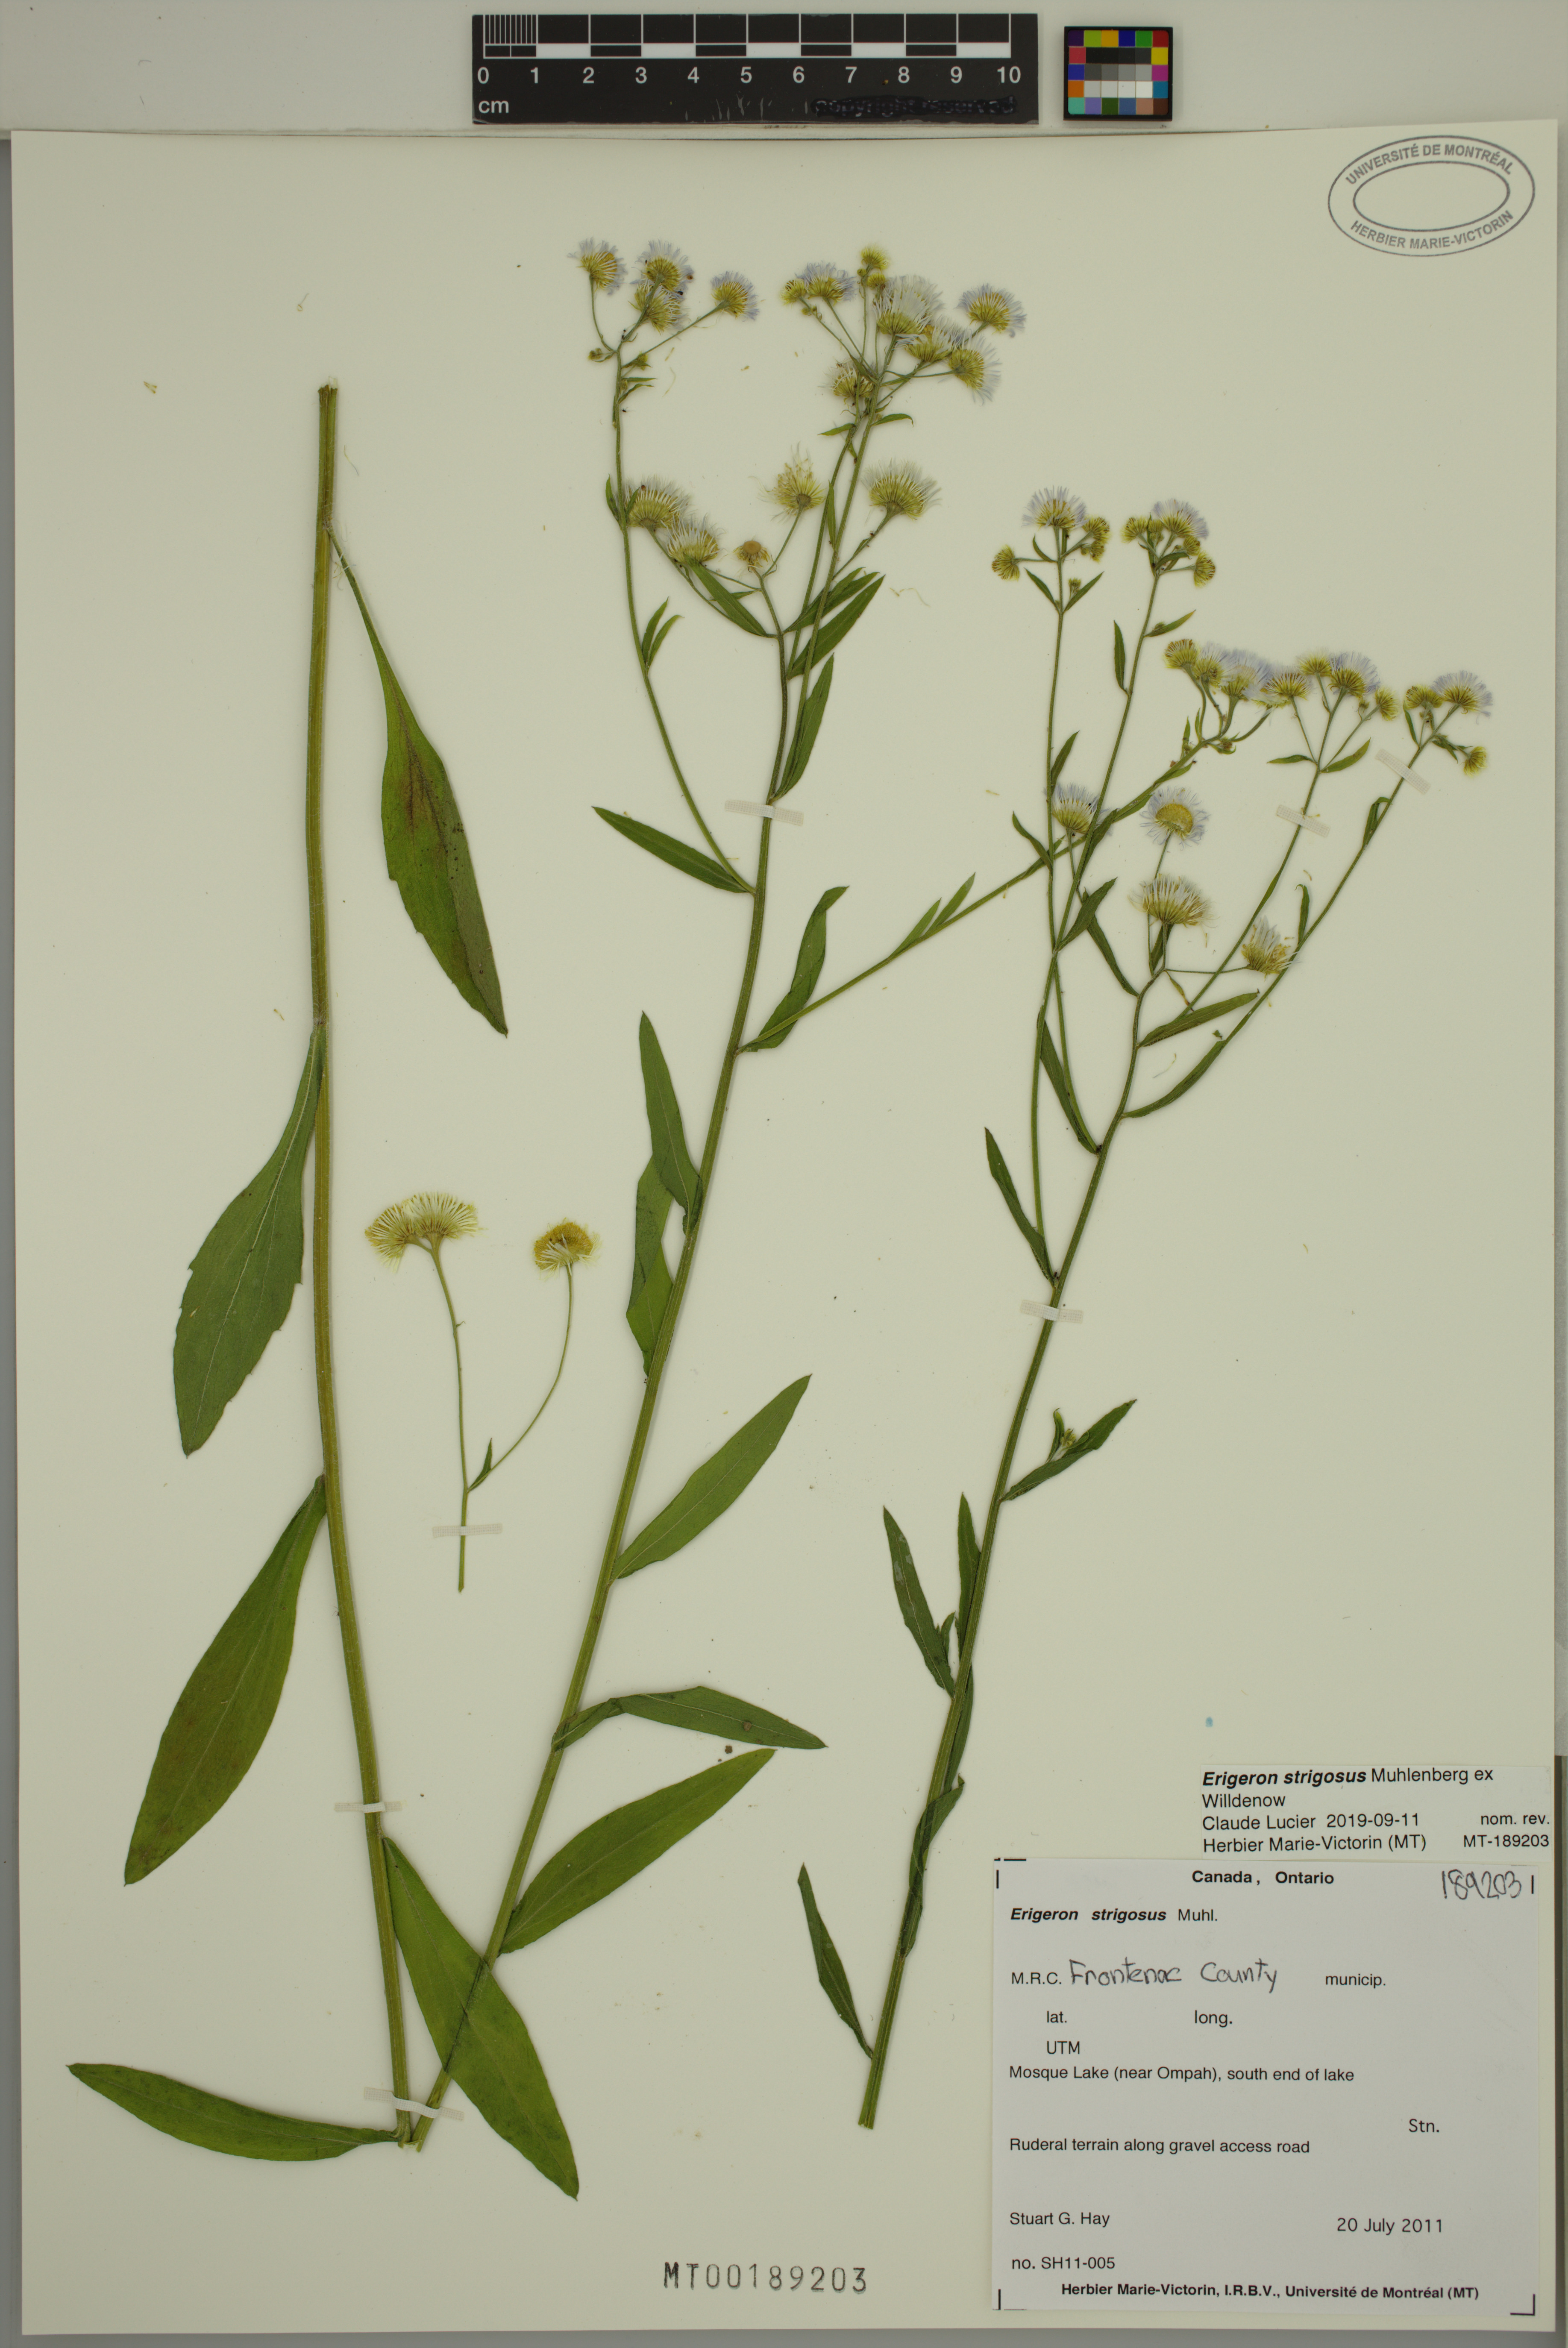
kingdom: Plantae
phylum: Tracheophyta
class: Magnoliopsida
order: Asterales
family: Asteraceae
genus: Erigeron
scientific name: Erigeron strigosus
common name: Common eastern fleabane
